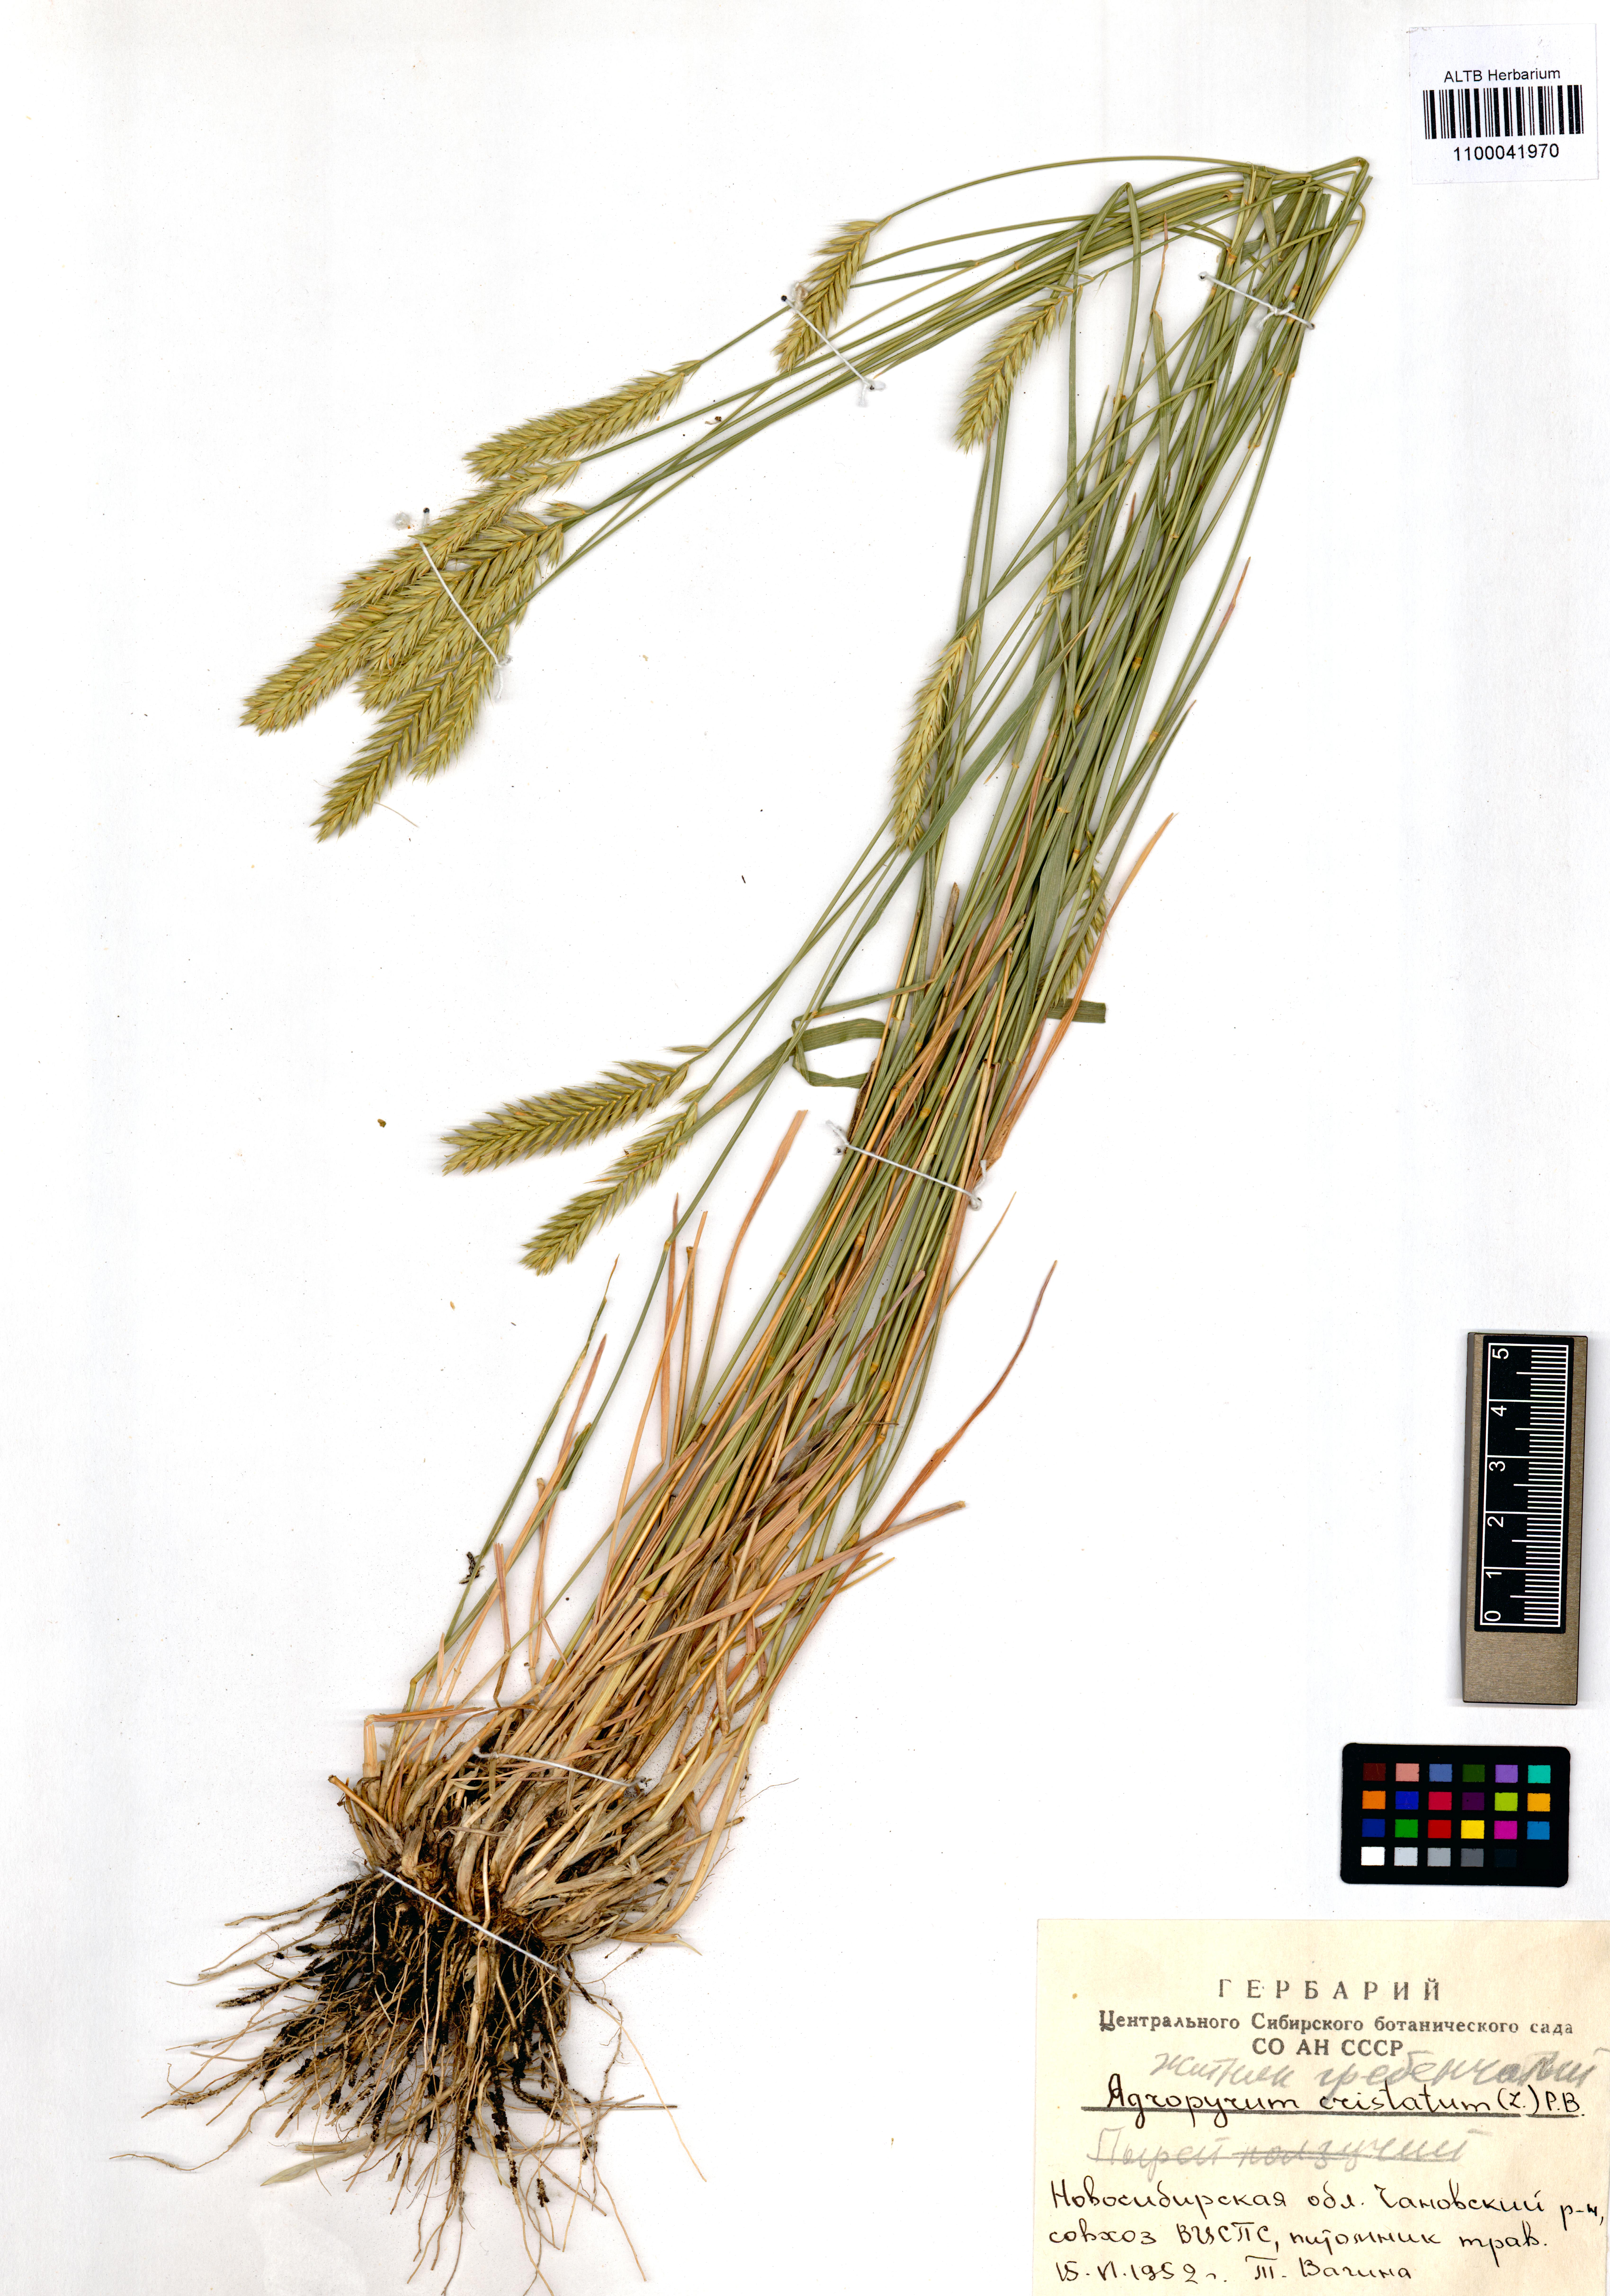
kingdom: Plantae
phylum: Tracheophyta
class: Liliopsida
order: Poales
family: Poaceae
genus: Agropyron
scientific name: Agropyron cristatum
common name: Crested wheatgrass
